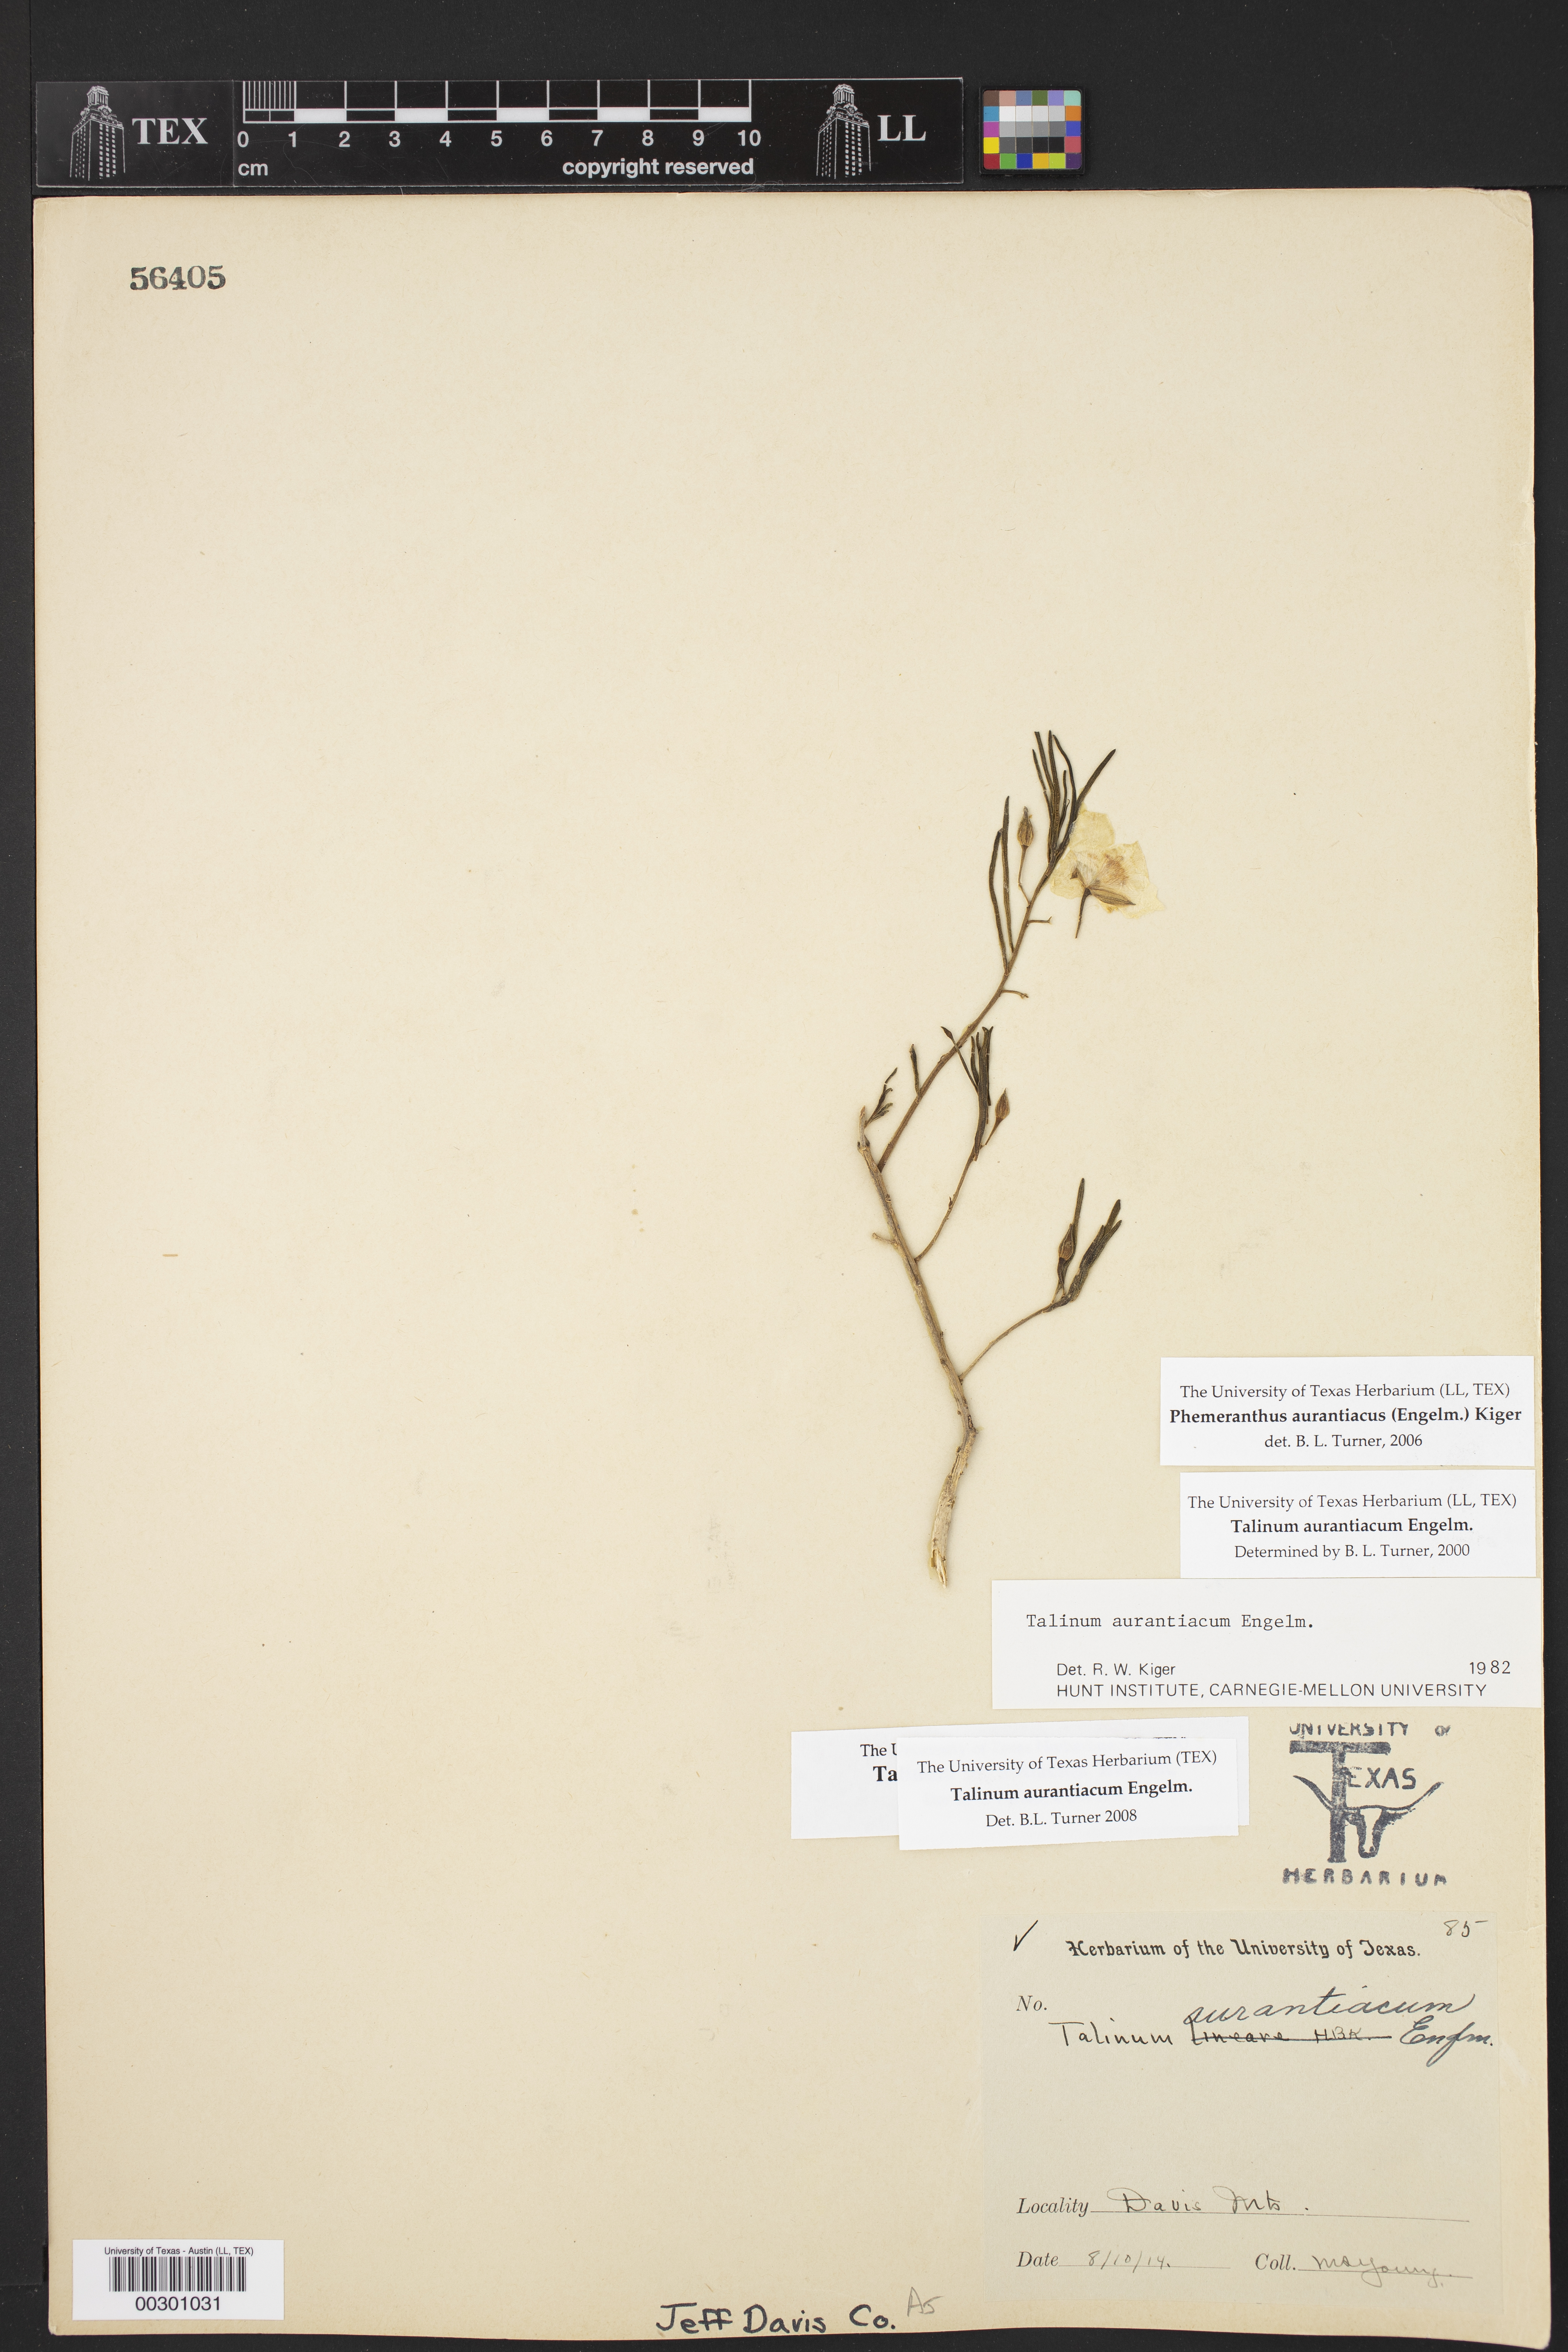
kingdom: Plantae
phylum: Tracheophyta
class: Magnoliopsida
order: Caryophyllales
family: Montiaceae
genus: Phemeranthus
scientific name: Phemeranthus aurantiacus
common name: Orange fameflower
